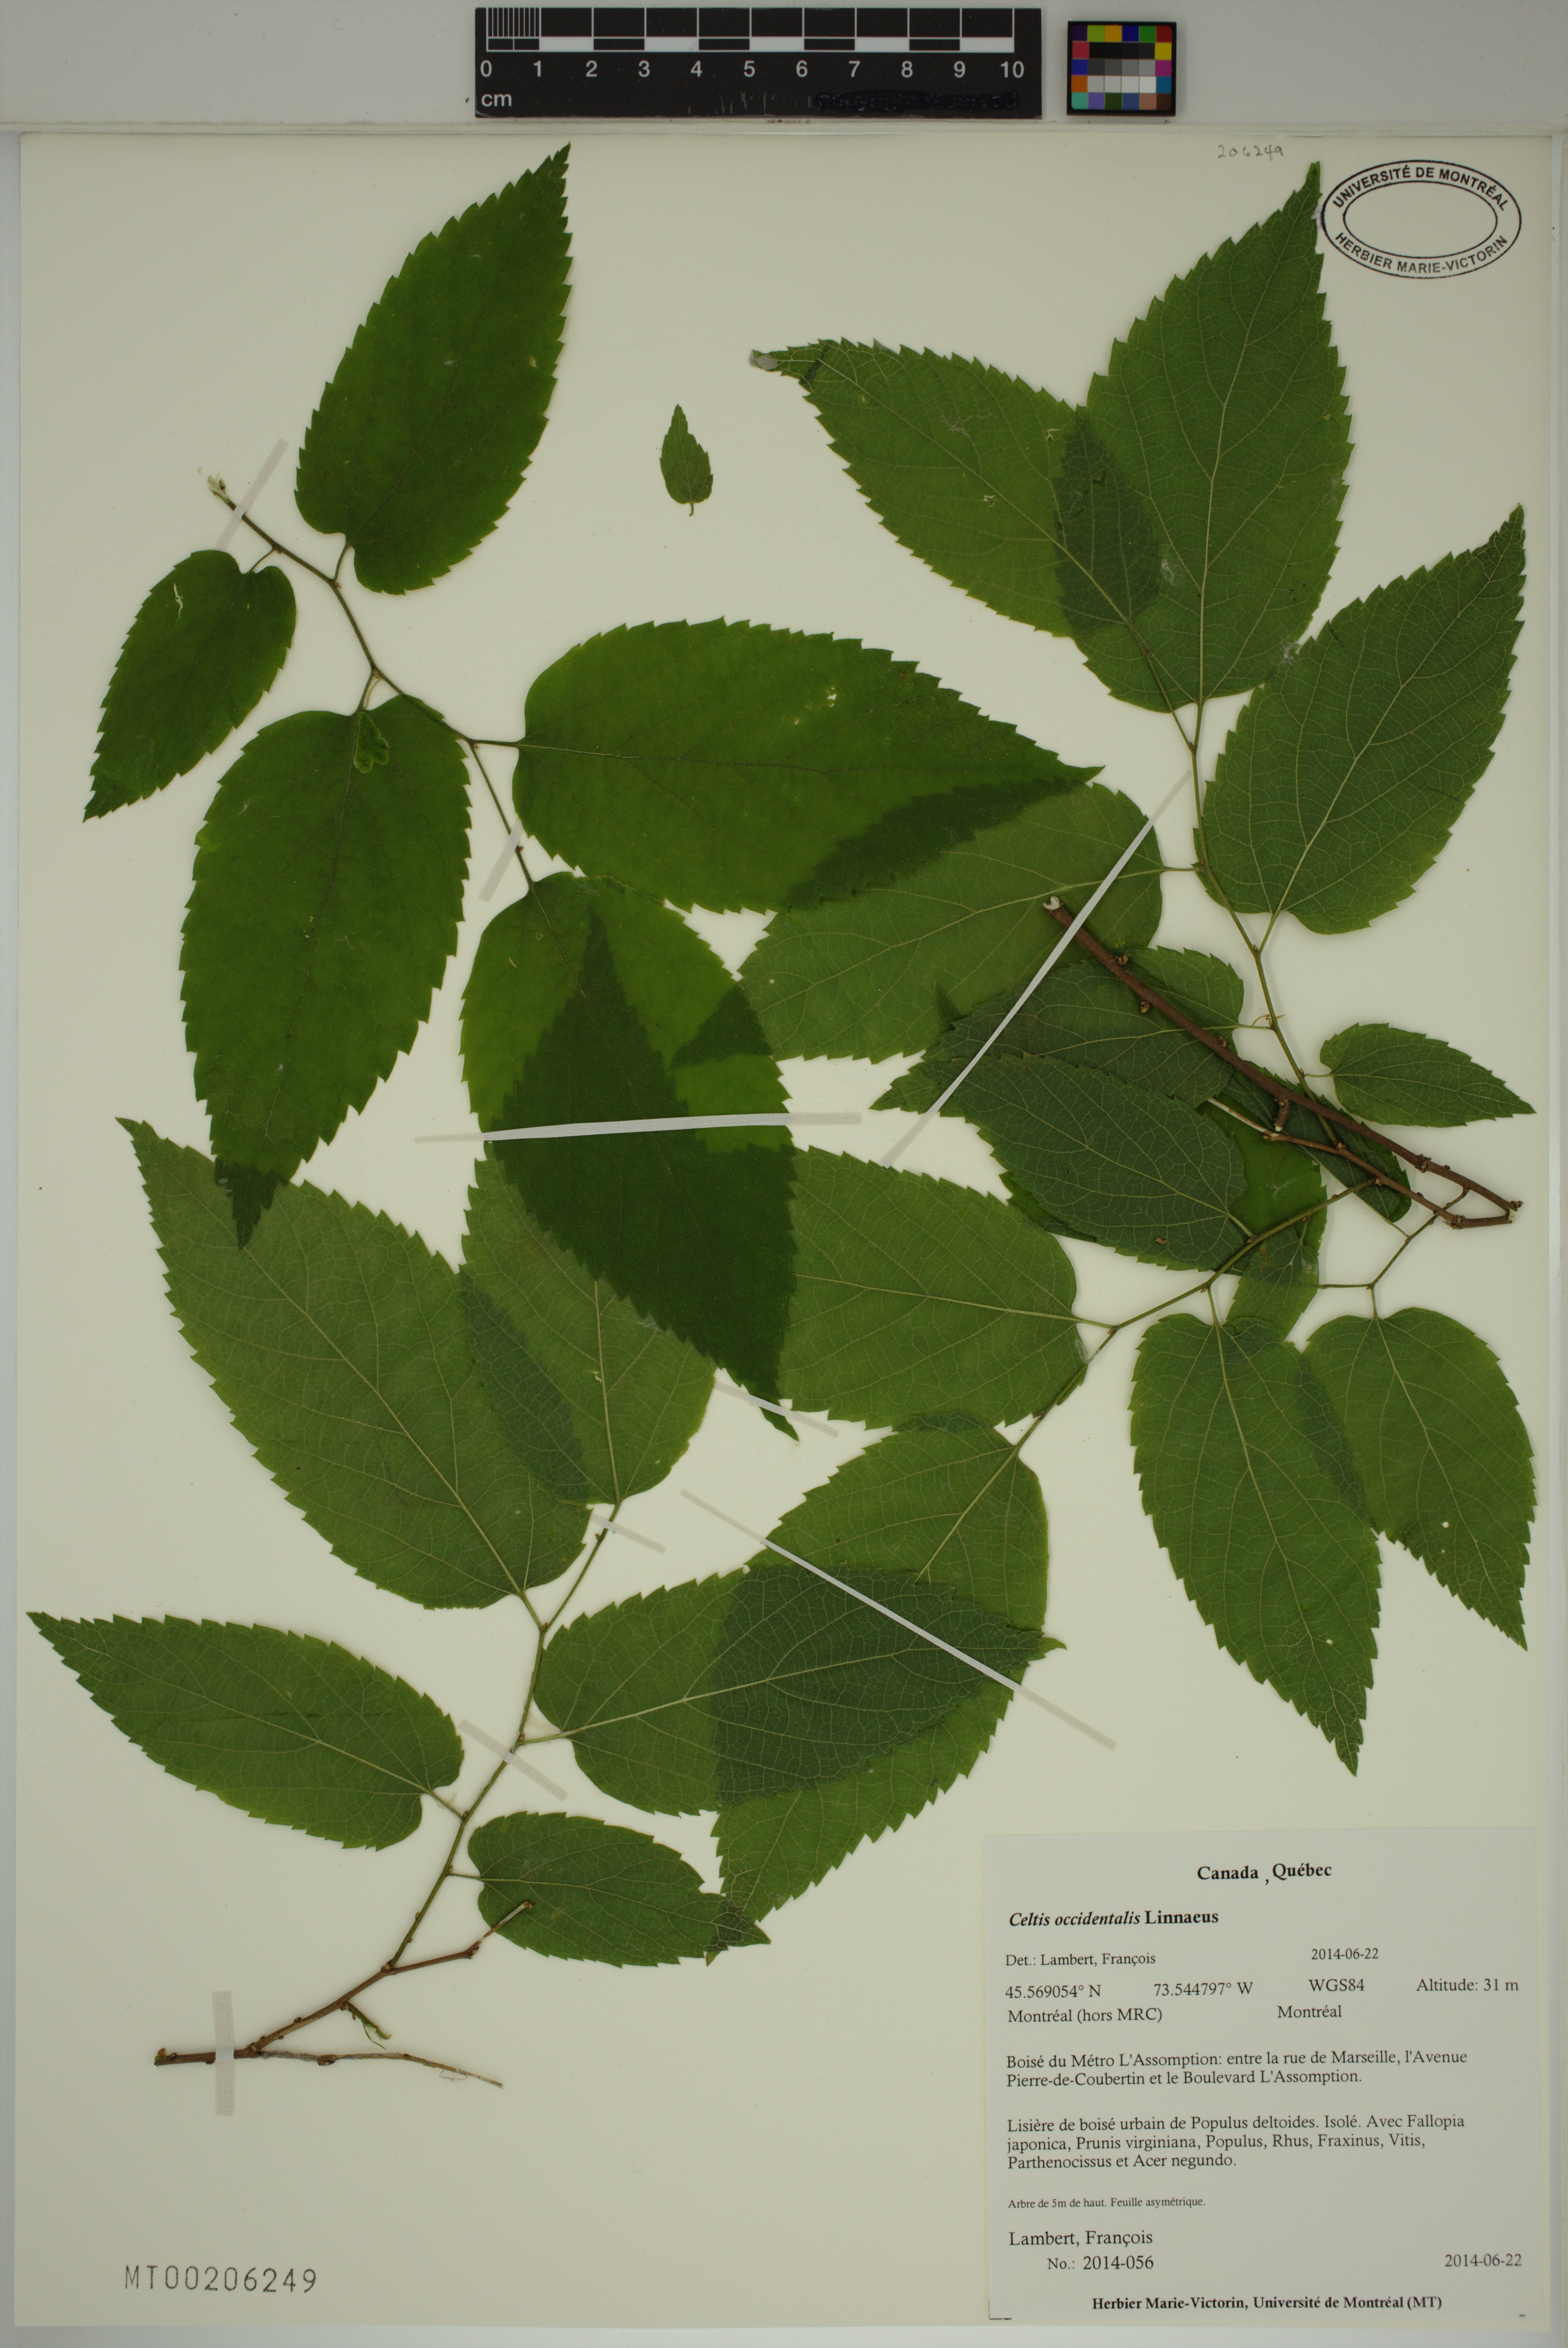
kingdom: Plantae
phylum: Tracheophyta
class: Magnoliopsida
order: Rosales
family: Cannabaceae
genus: Celtis
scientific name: Celtis occidentalis
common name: Common hackberry
